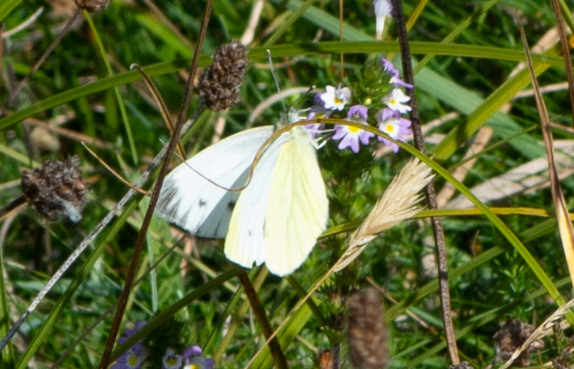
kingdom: Animalia
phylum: Arthropoda
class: Insecta
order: Lepidoptera
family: Pieridae
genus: Pieris
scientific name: Pieris napi
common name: Grønåret kålsommerfugl
